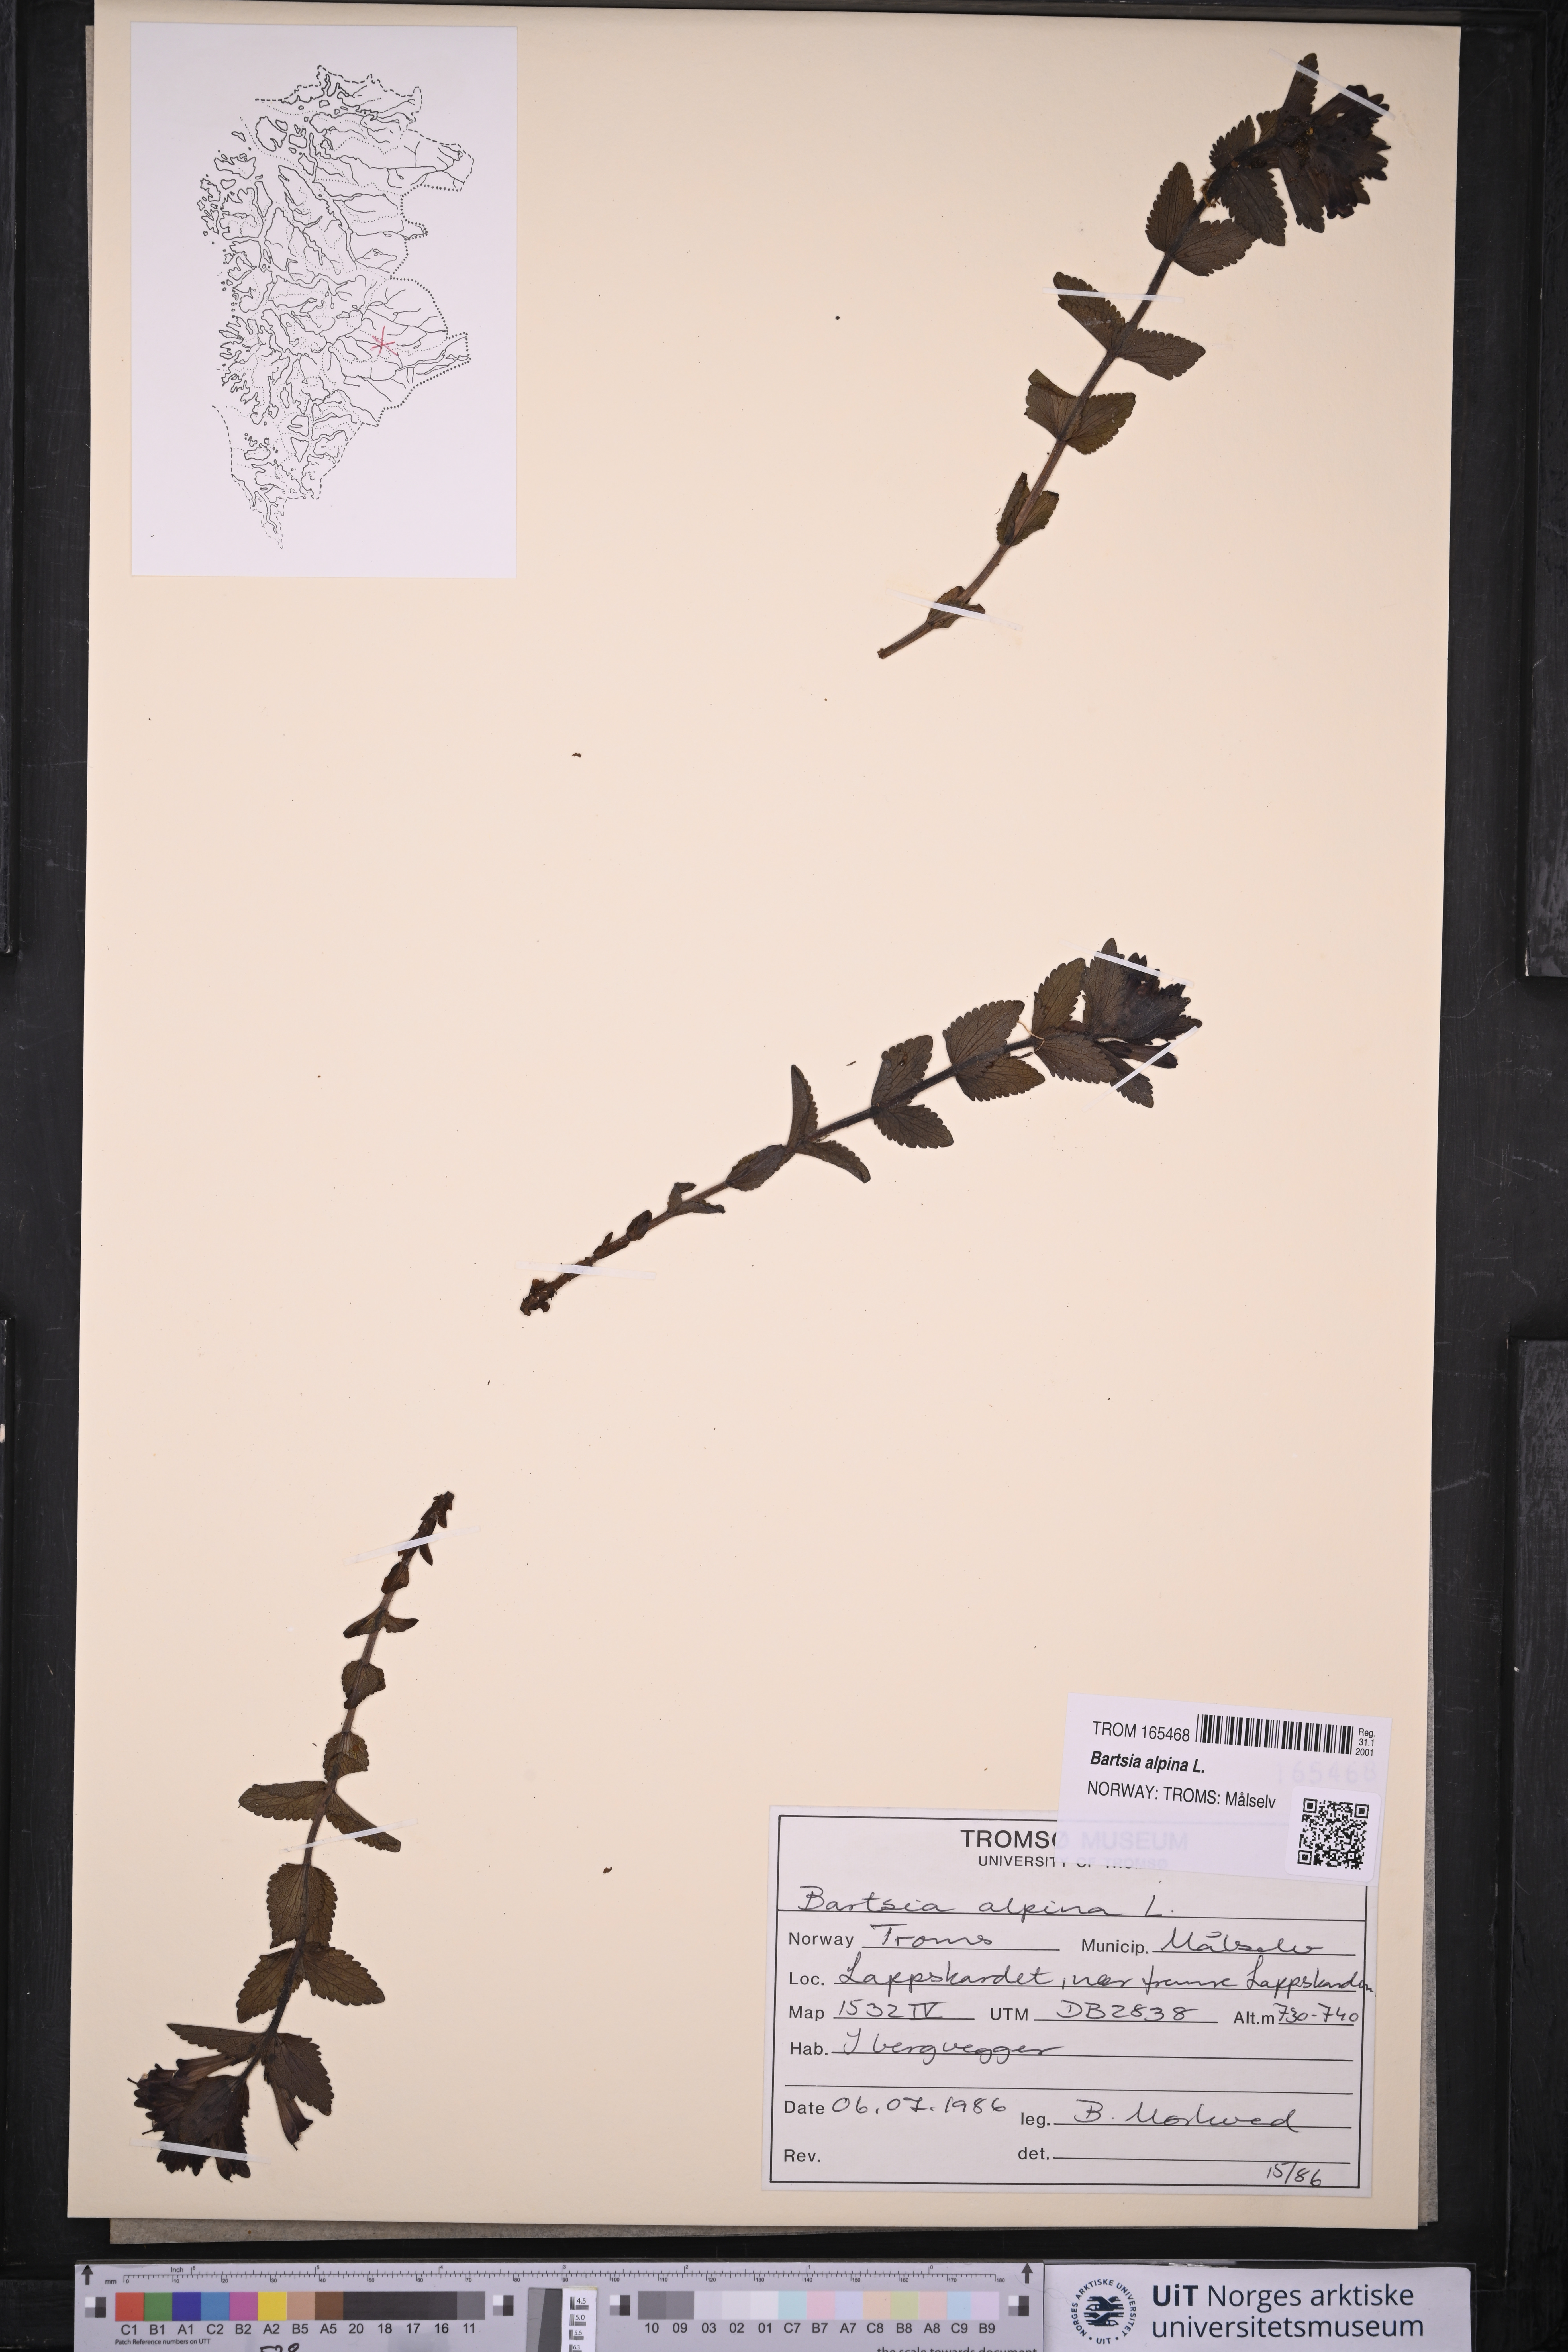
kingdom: Plantae
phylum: Tracheophyta
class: Magnoliopsida
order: Lamiales
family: Orobanchaceae
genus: Bartsia
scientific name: Bartsia alpina
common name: Alpine bartsia
